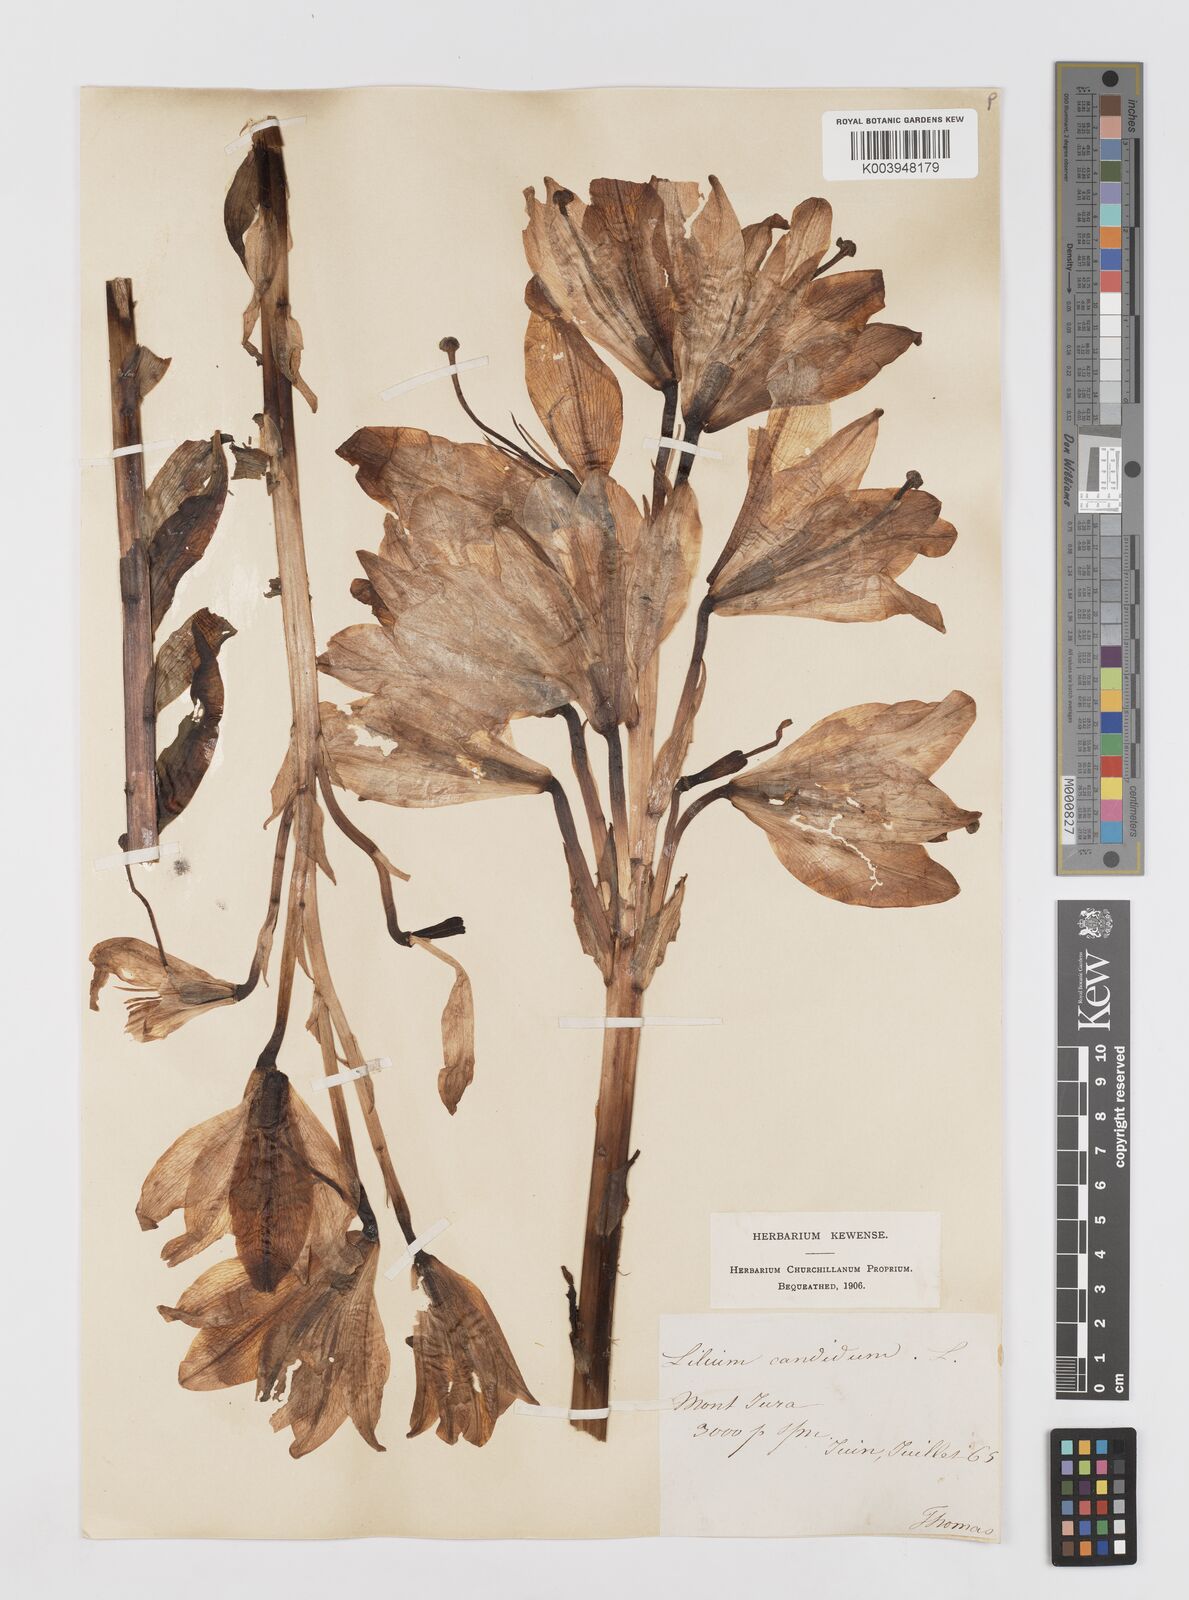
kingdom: Plantae
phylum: Tracheophyta
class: Liliopsida
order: Liliales
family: Liliaceae
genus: Lilium
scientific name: Lilium candidum
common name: Madonna lily
